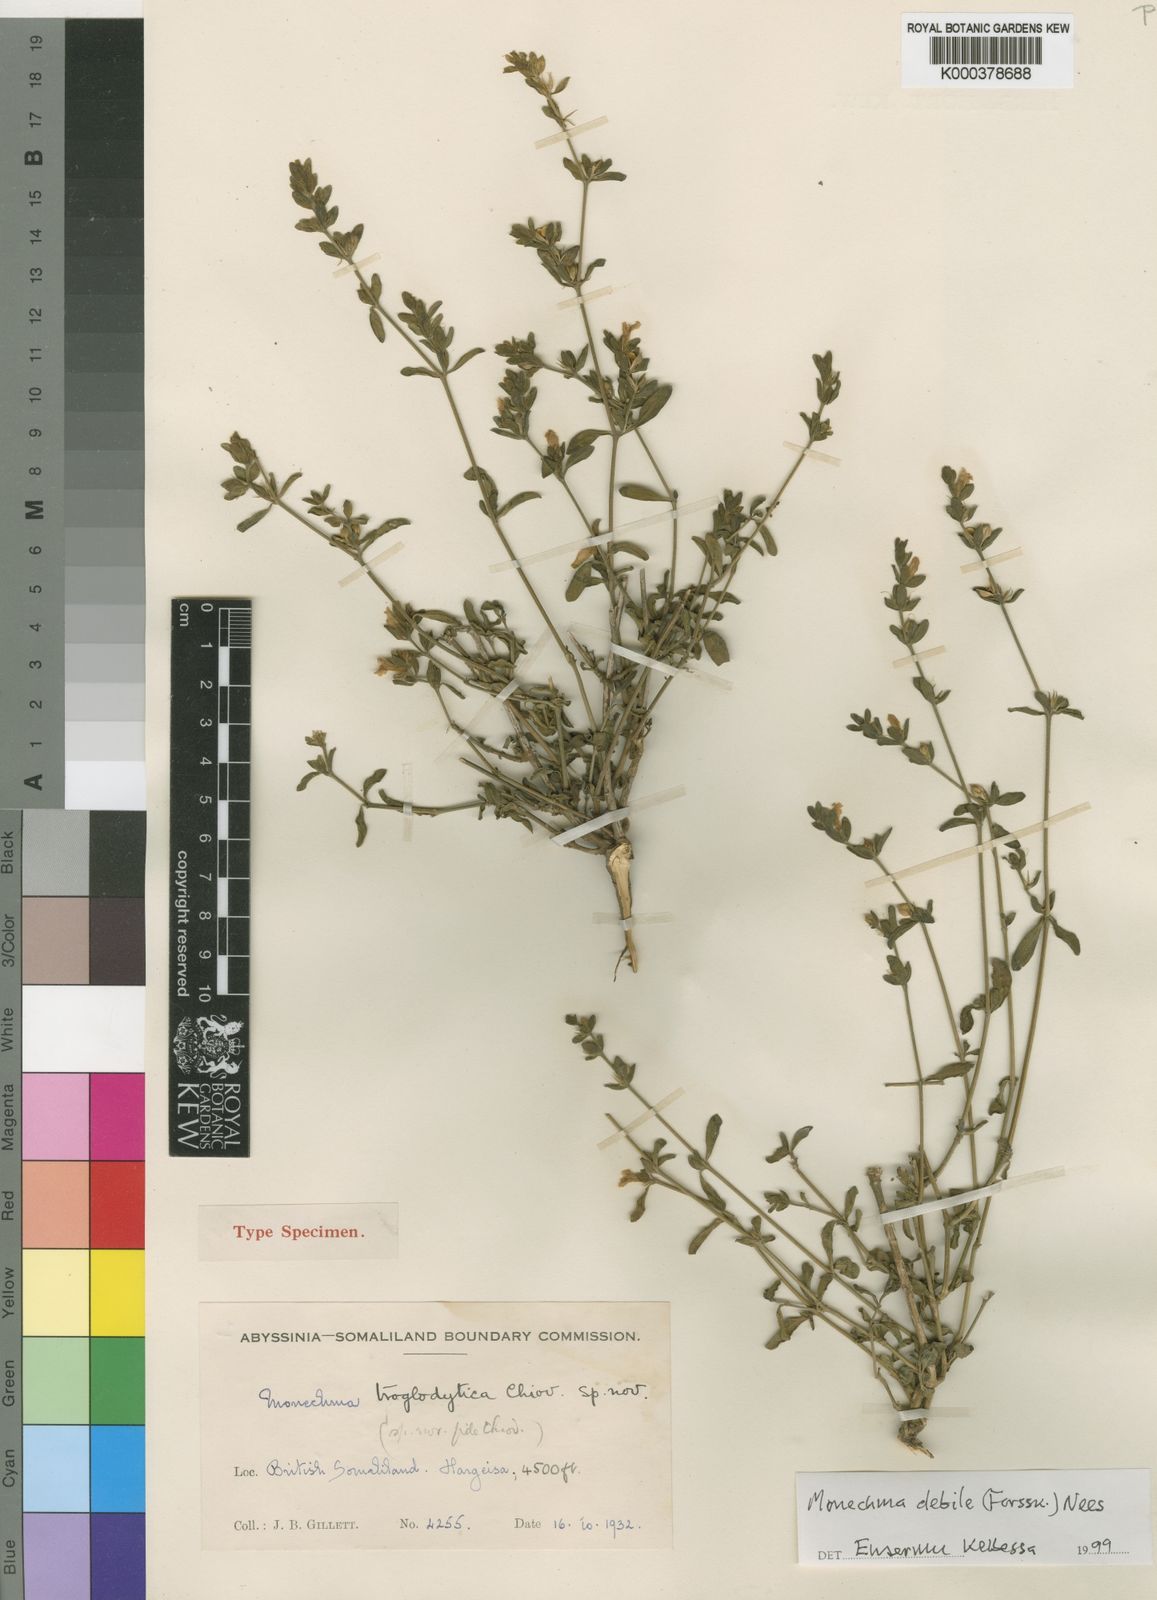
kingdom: Plantae
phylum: Tracheophyta
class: Magnoliopsida
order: Lamiales
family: Acanthaceae
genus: Monechma
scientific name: Monechma debile
